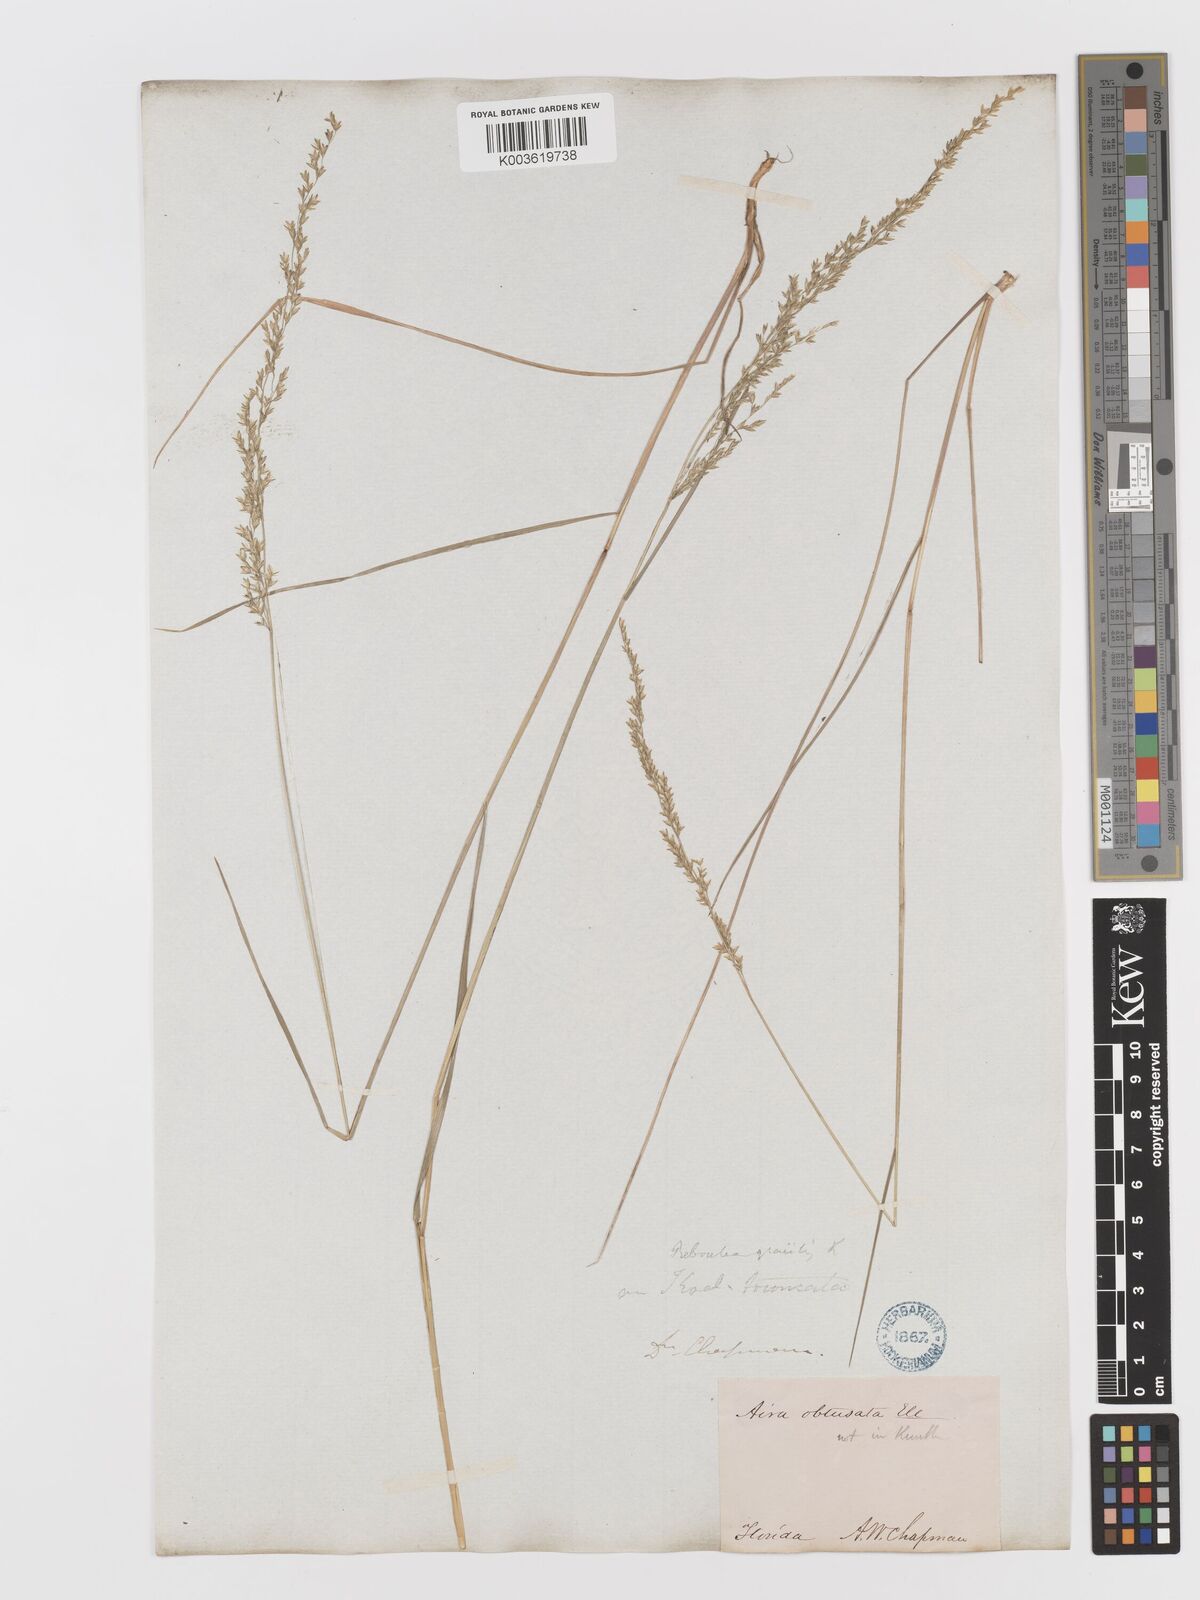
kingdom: Plantae
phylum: Tracheophyta
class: Liliopsida
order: Poales
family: Poaceae
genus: Sphenopholis
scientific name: Sphenopholis nitida
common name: Shiny wedgegrass
